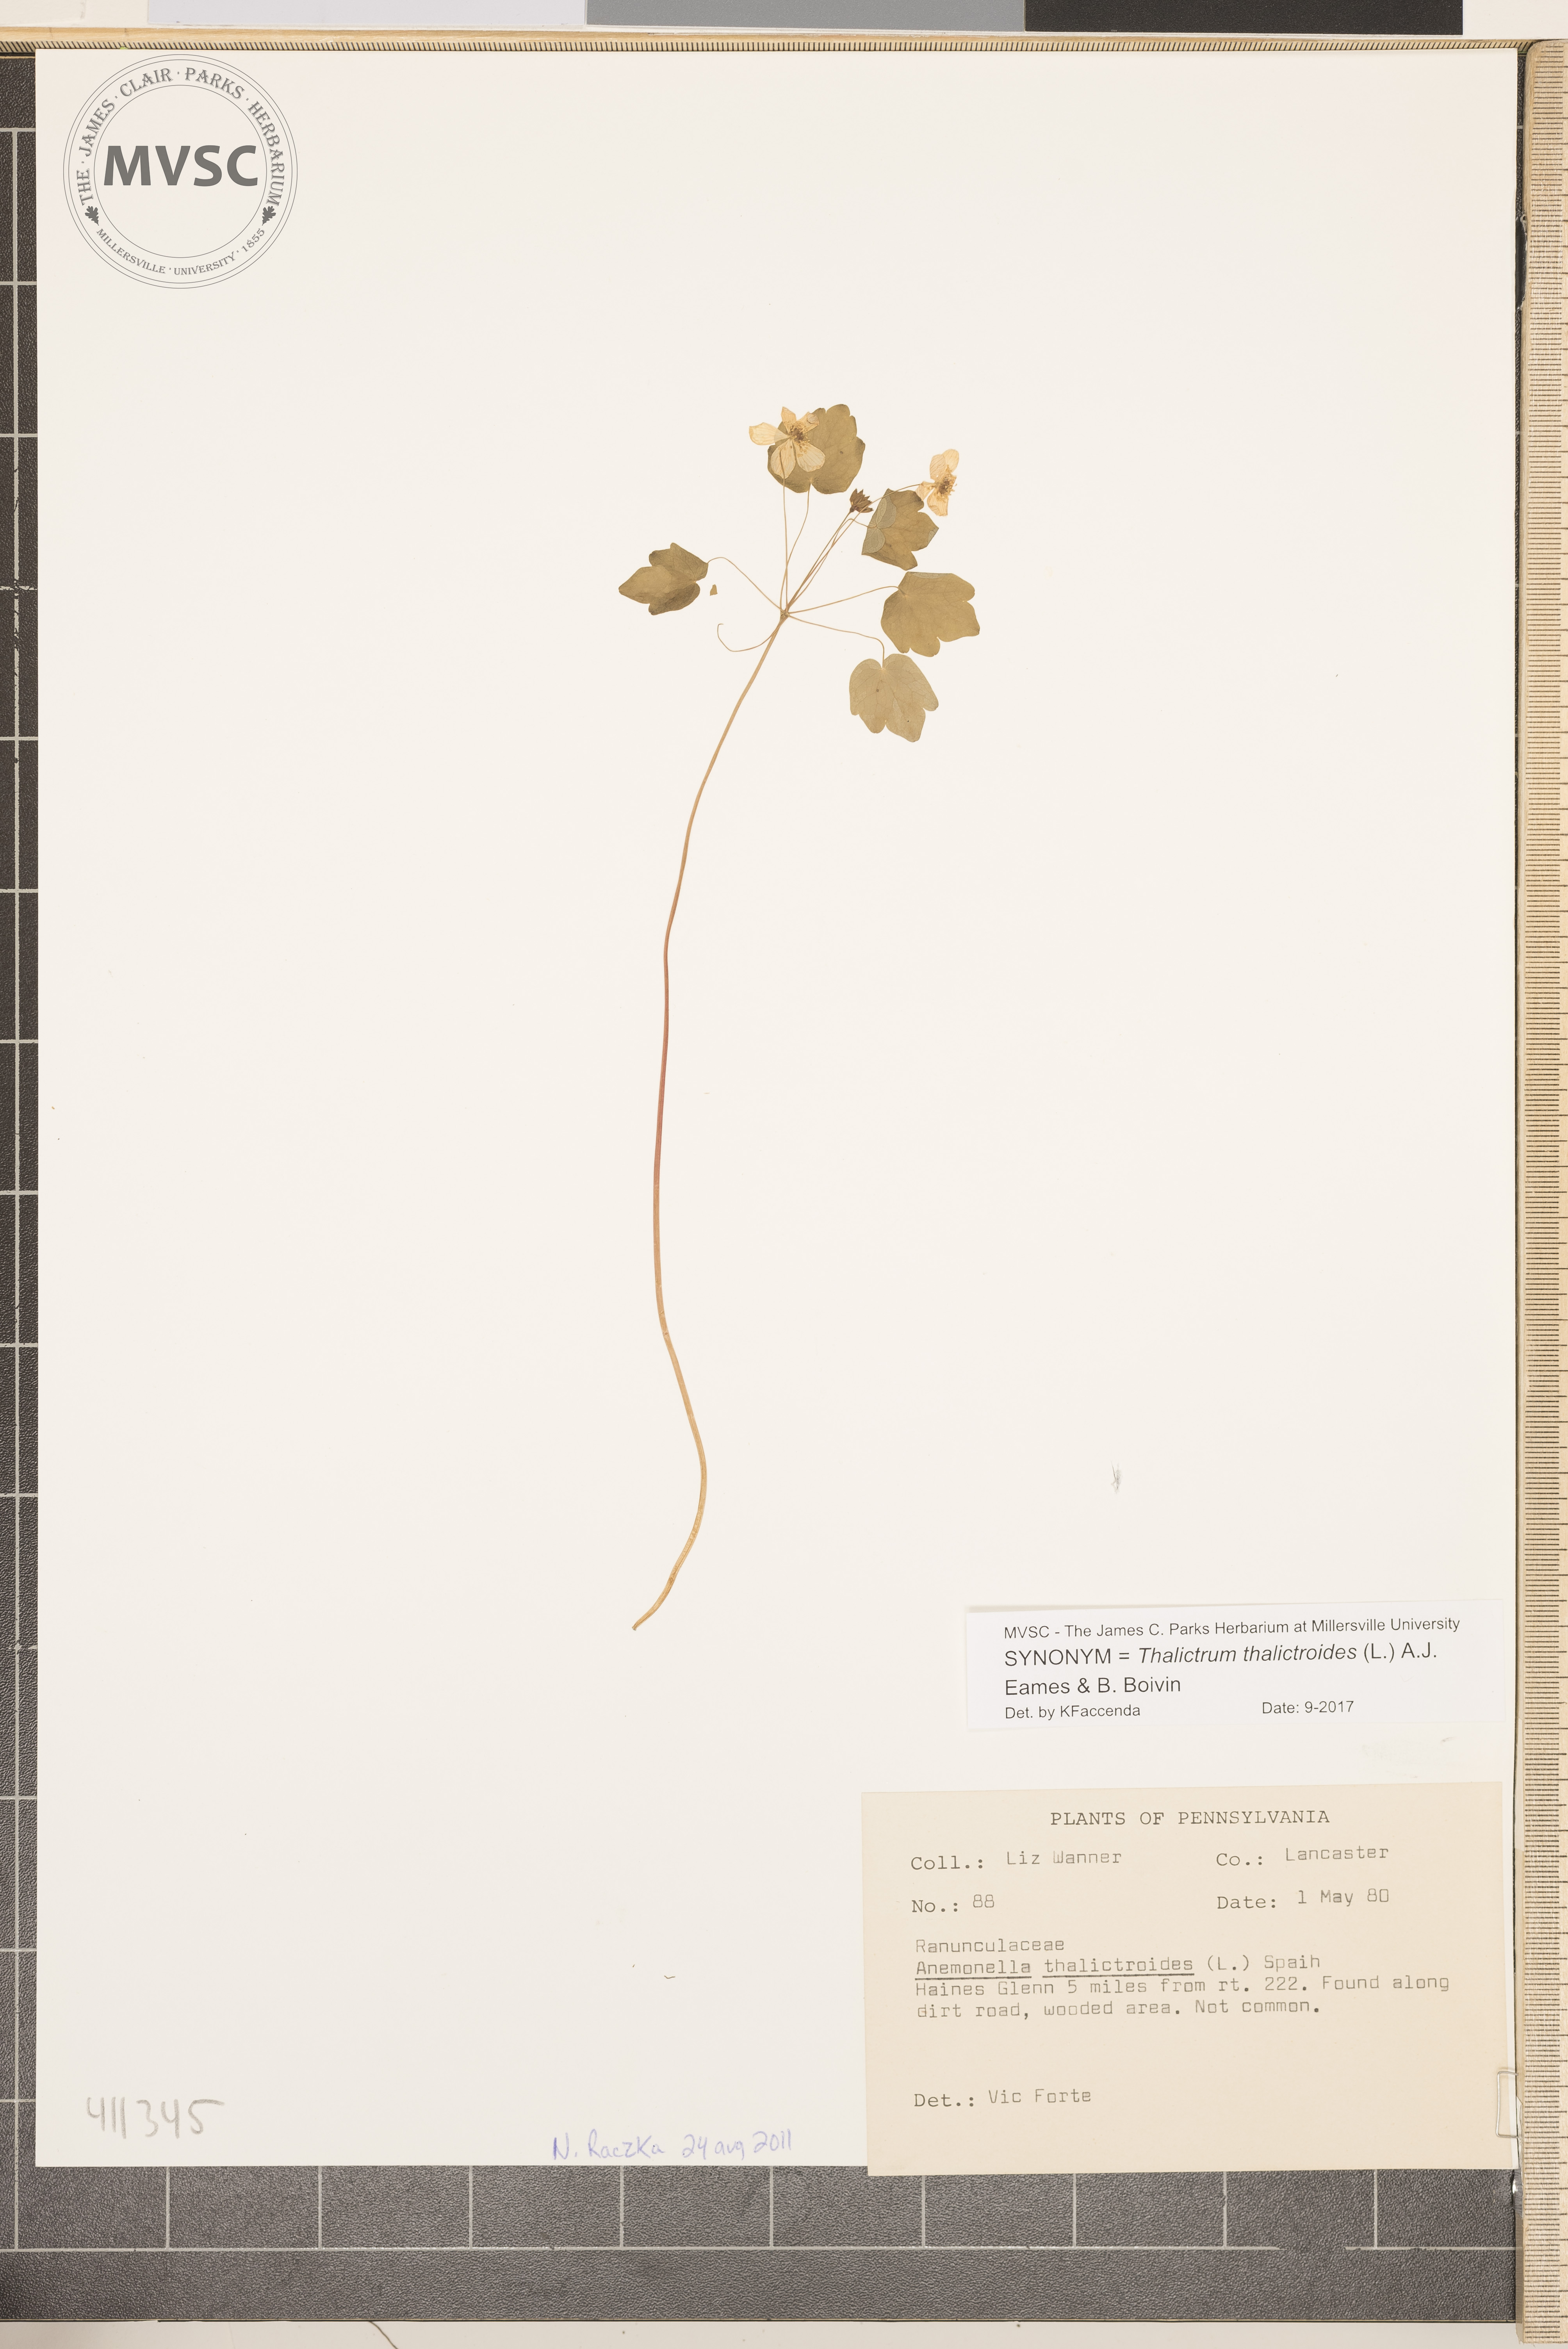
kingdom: Plantae
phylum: Tracheophyta
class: Magnoliopsida
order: Ranunculales
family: Ranunculaceae
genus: Thalictrum
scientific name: Thalictrum thalictroides
